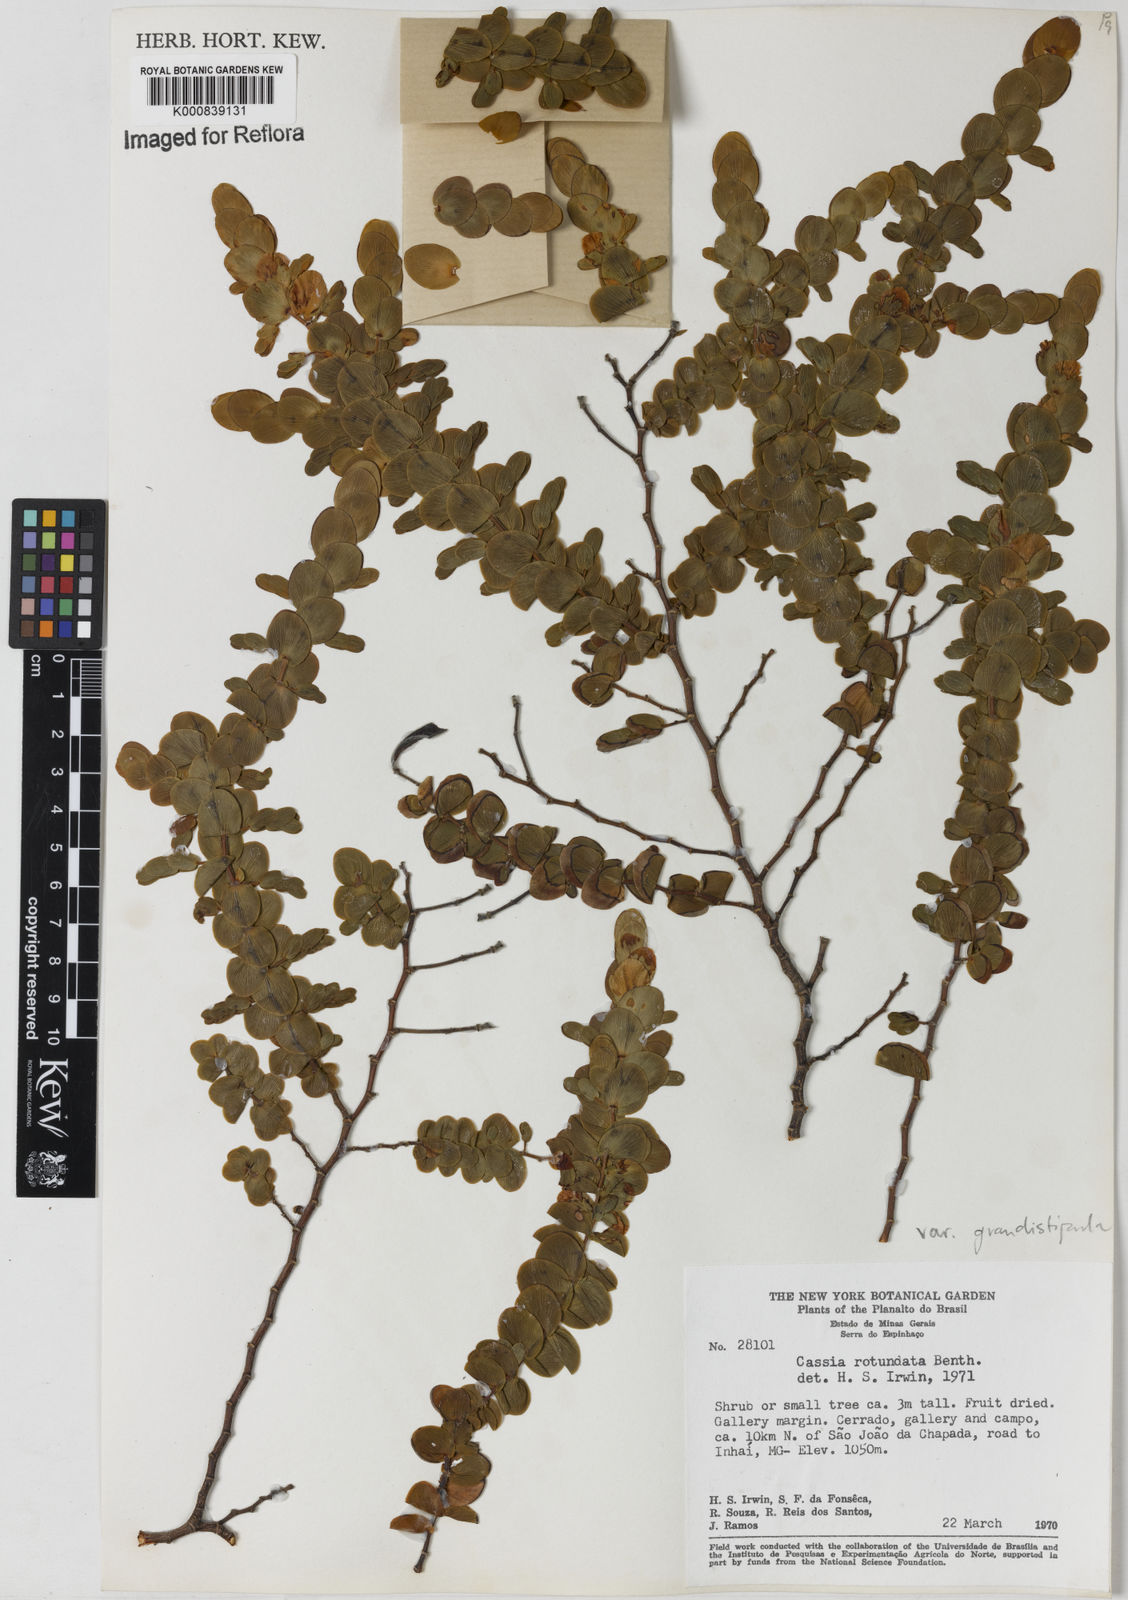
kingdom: Plantae
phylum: Tracheophyta
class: Magnoliopsida
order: Fabales
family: Fabaceae
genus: Chamaecrista
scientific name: Chamaecrista
